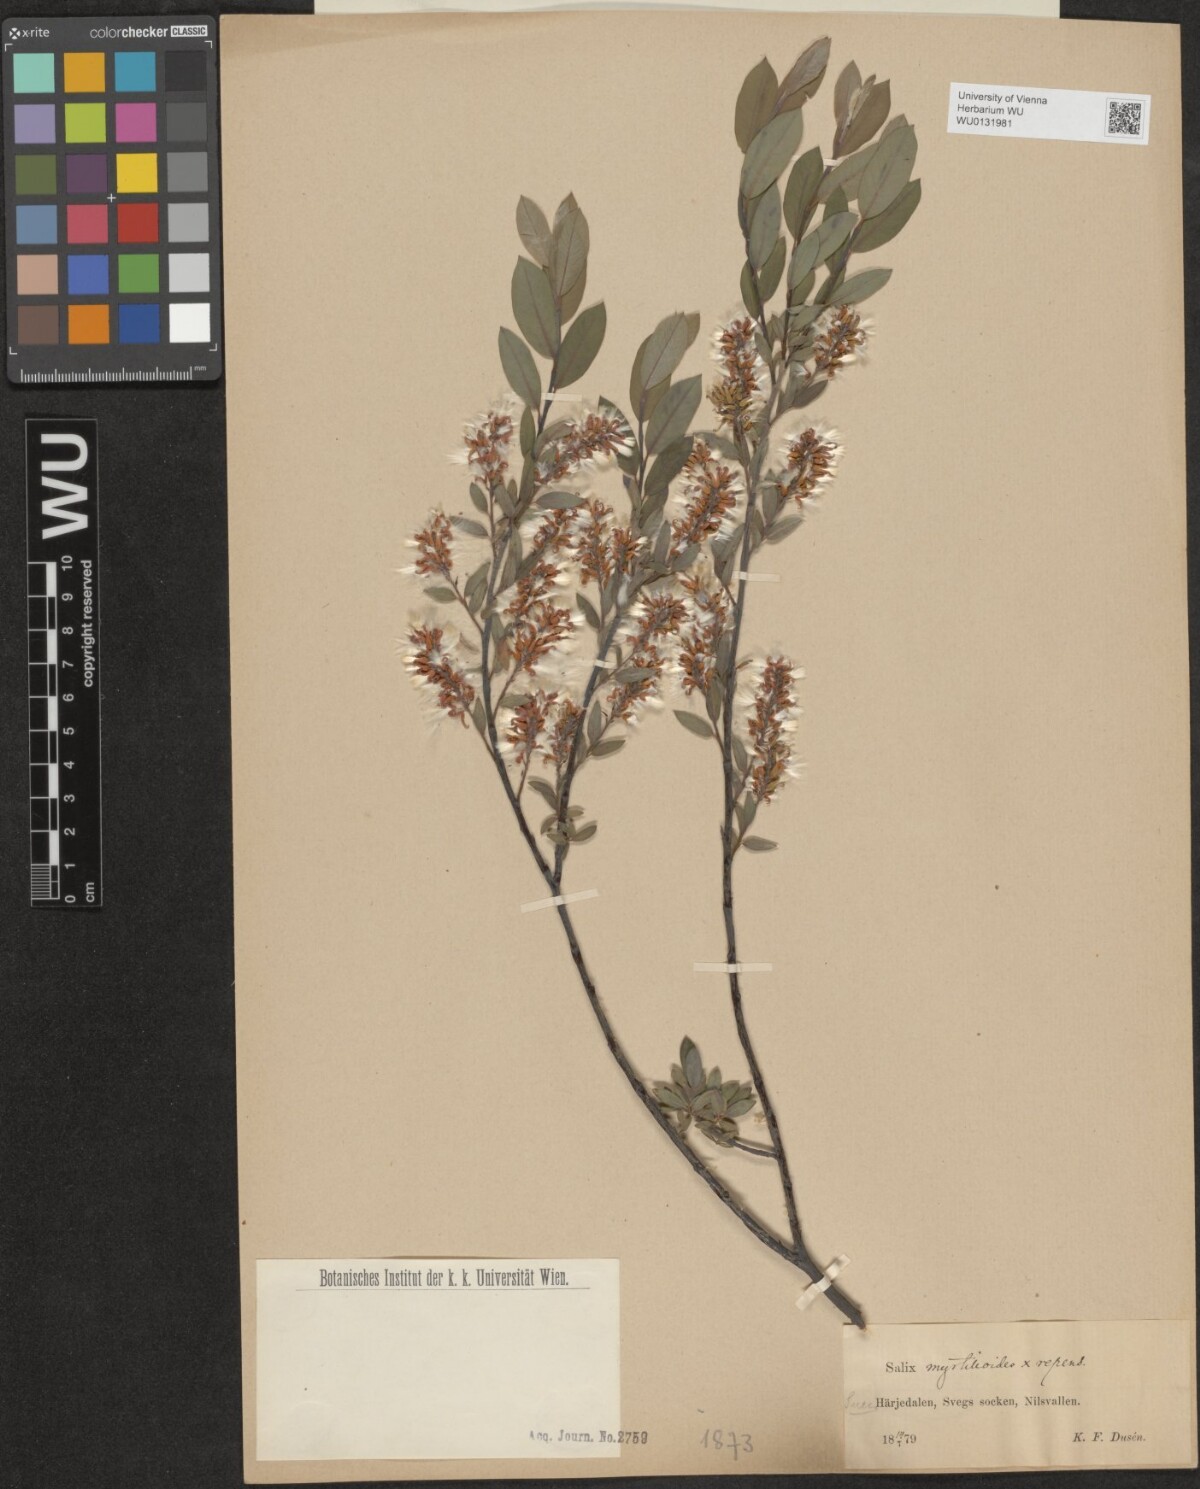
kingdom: Plantae
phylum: Tracheophyta
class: Magnoliopsida
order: Malpighiales
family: Salicaceae
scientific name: Salicaceae
